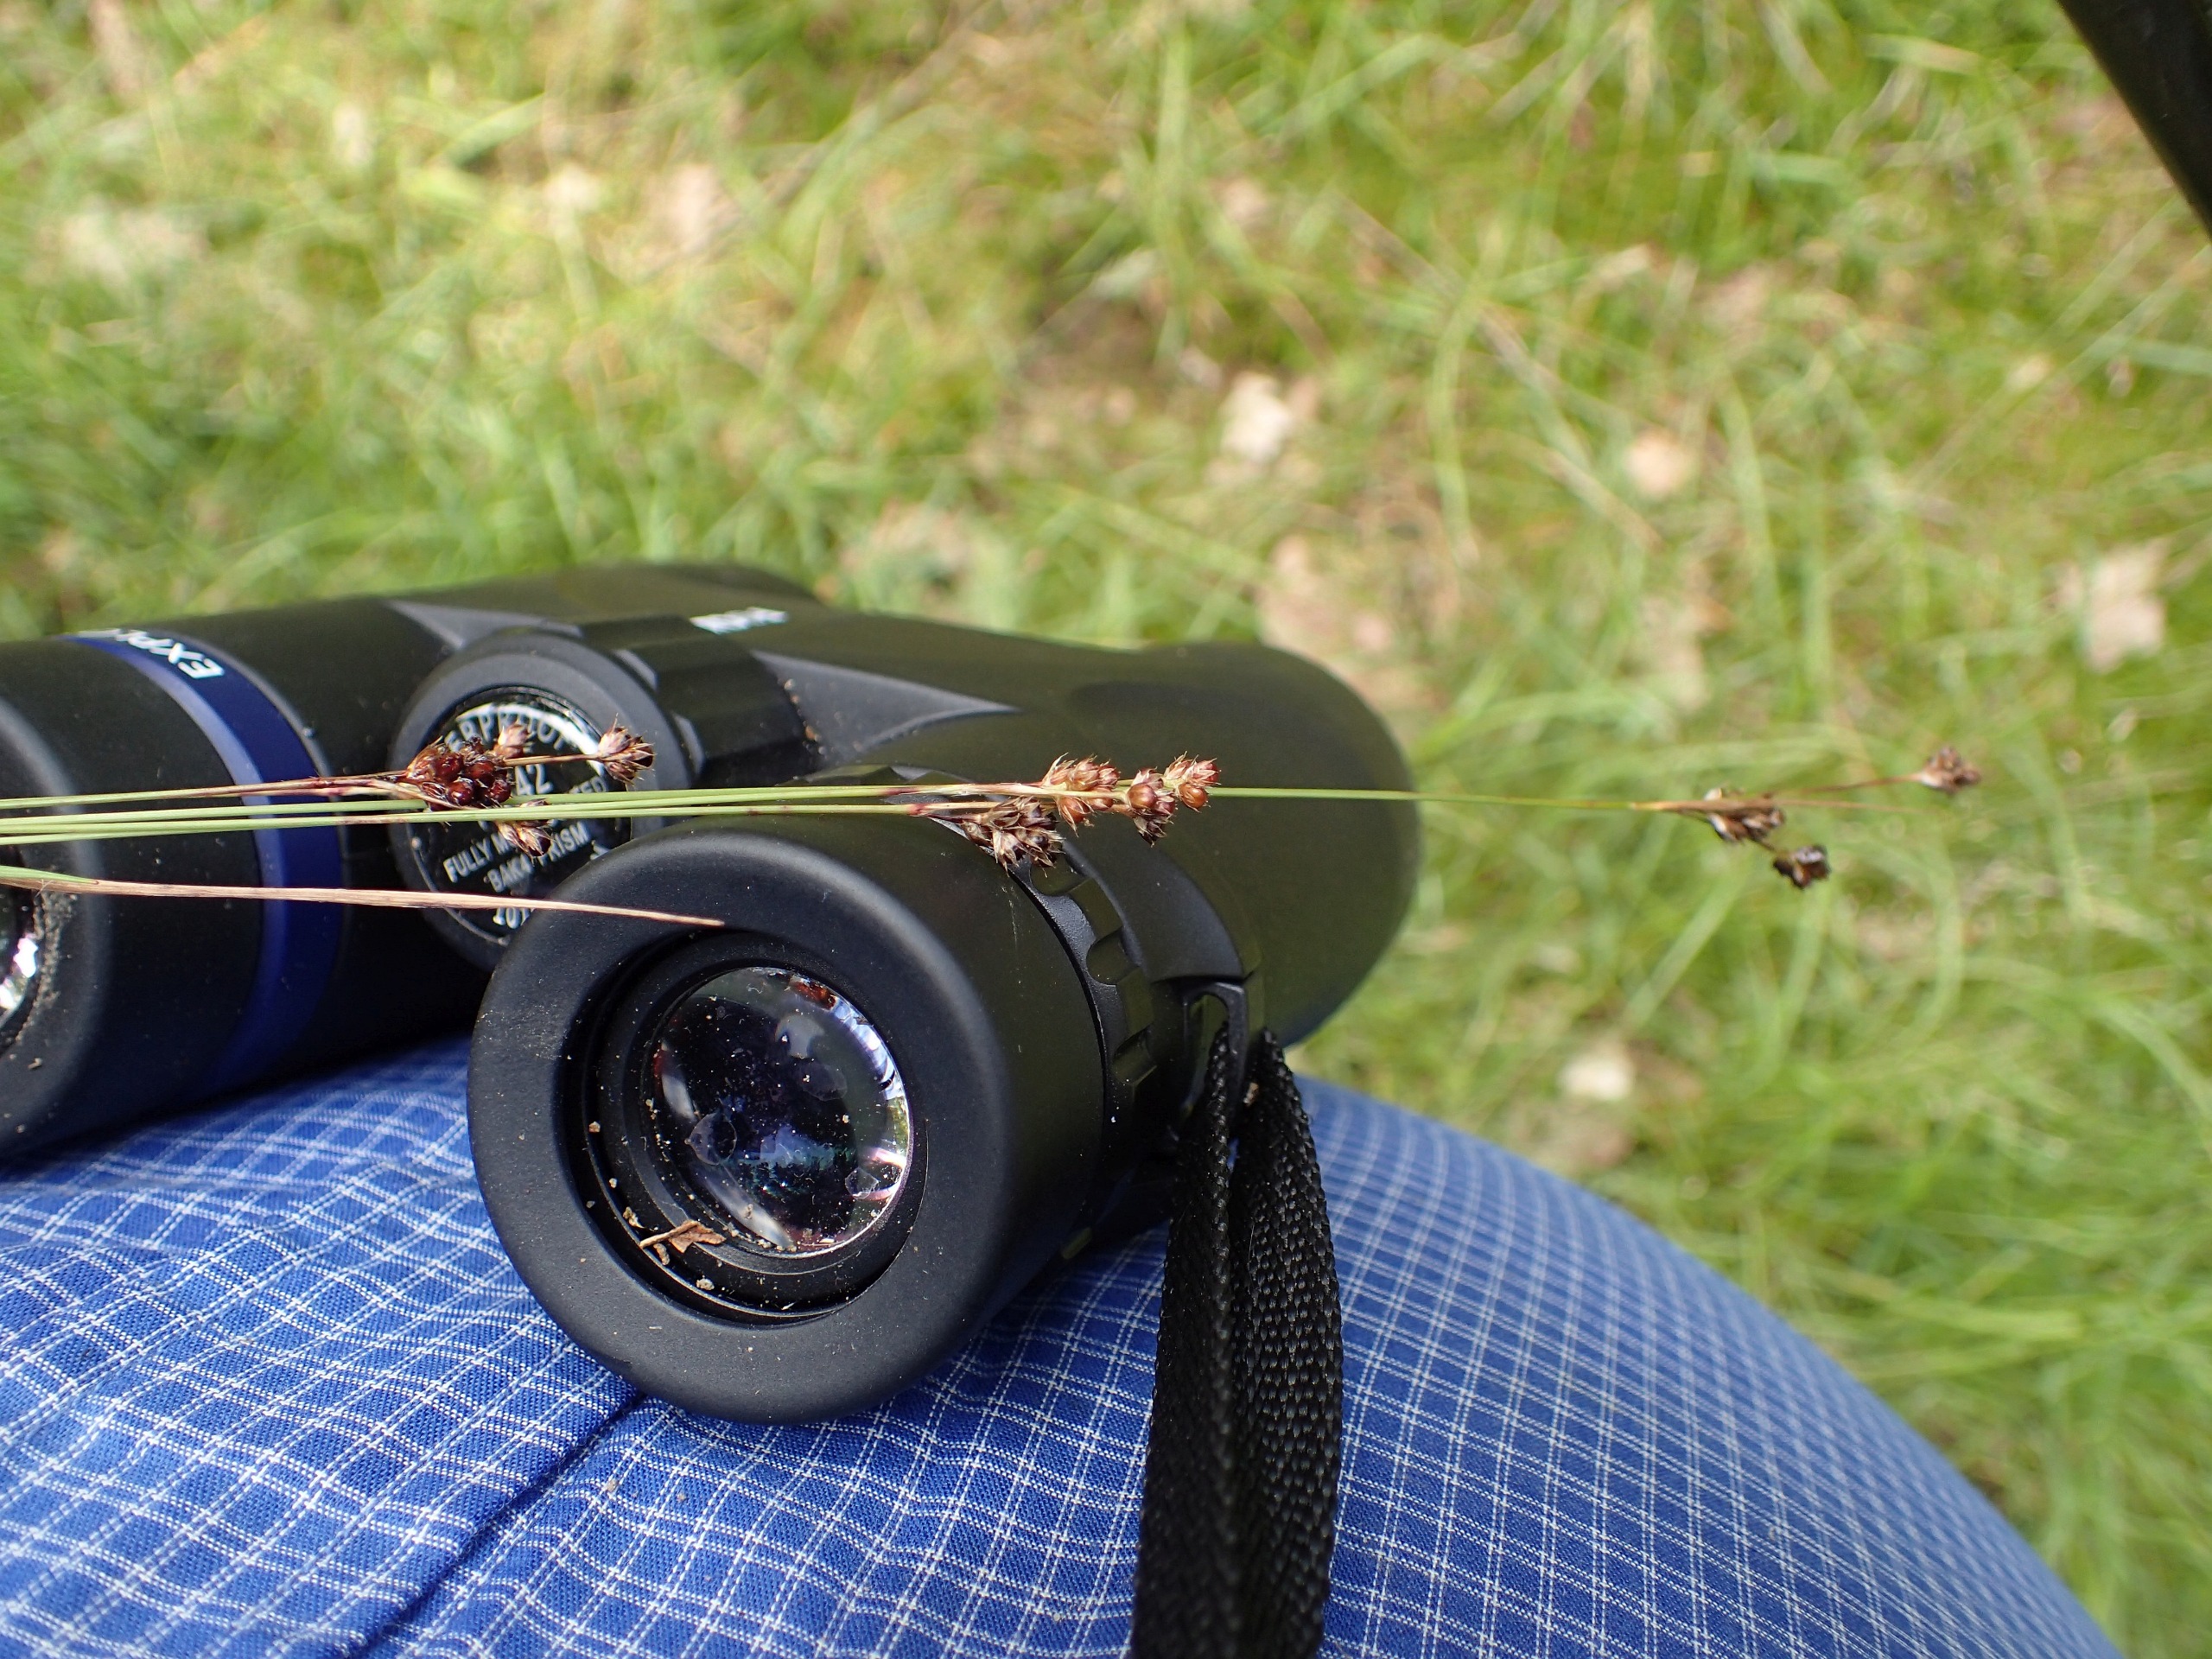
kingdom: Plantae
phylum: Tracheophyta
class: Liliopsida
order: Poales
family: Juncaceae
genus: Luzula
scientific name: Luzula multiflora
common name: Mangeblomstret frytle
